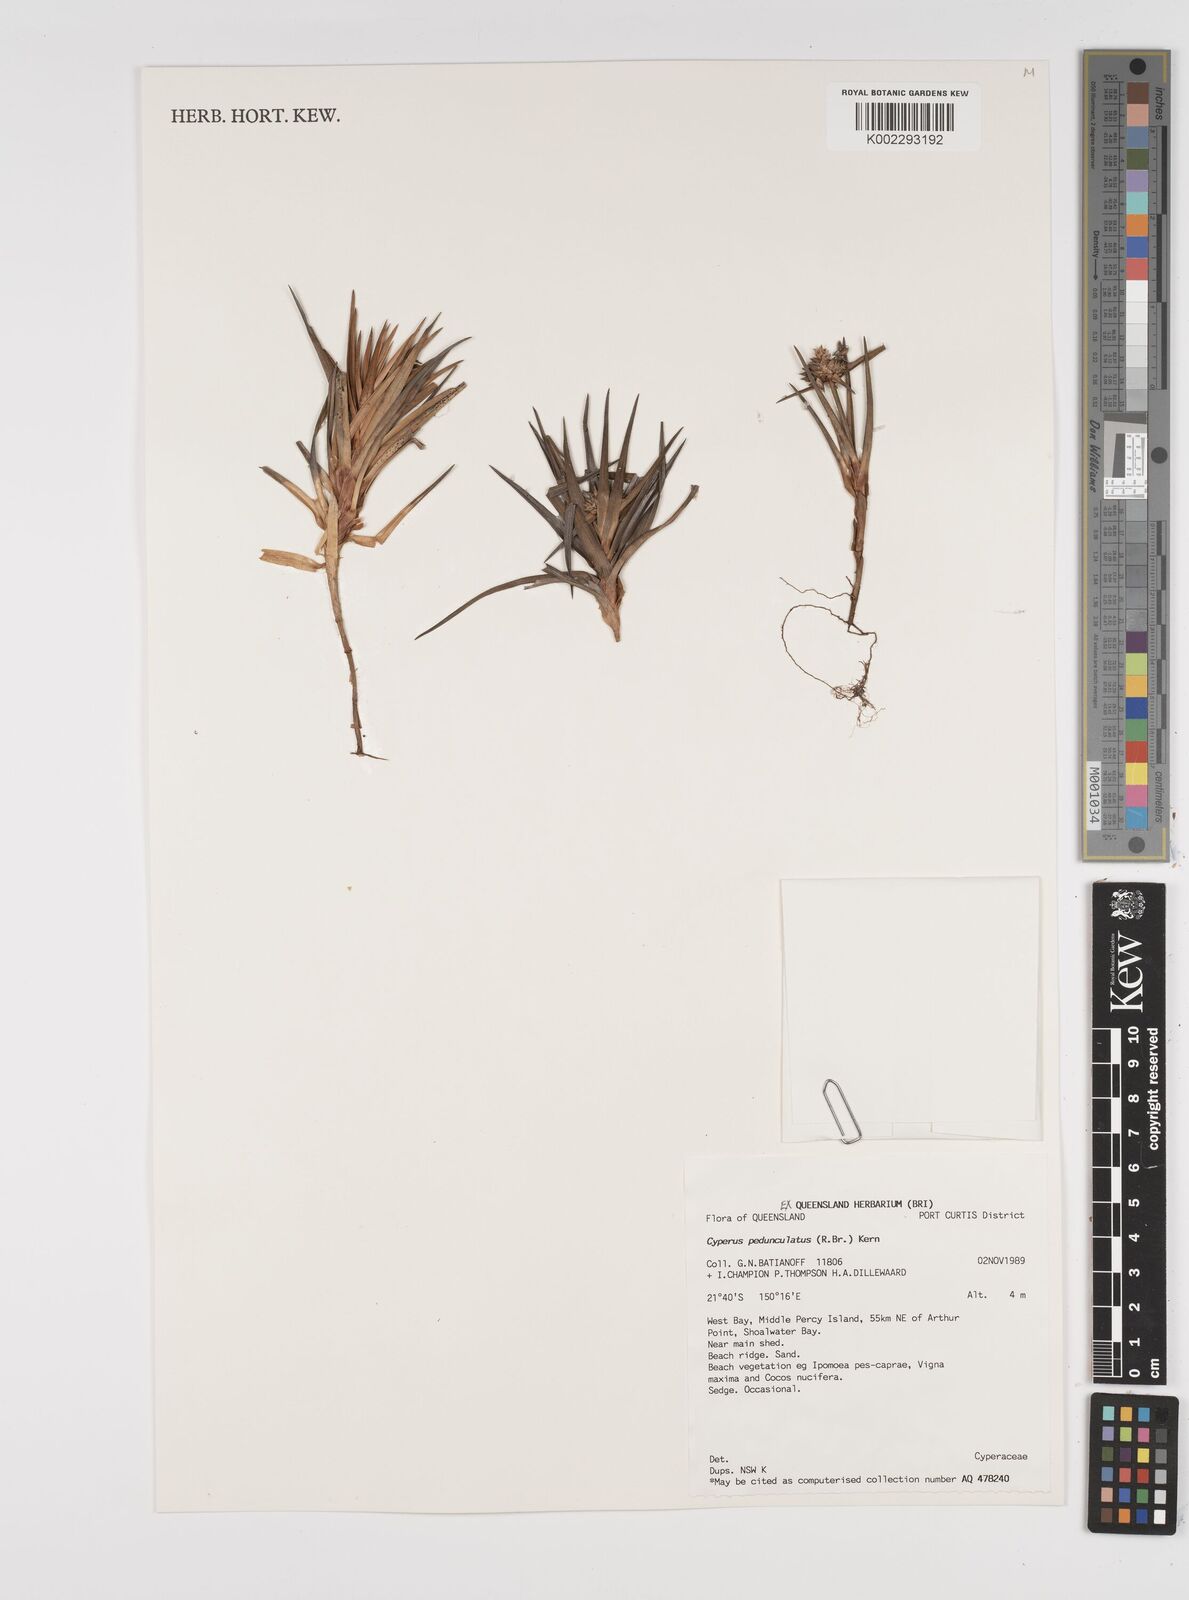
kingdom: Plantae
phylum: Tracheophyta
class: Liliopsida
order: Poales
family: Cyperaceae
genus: Cyperus
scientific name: Cyperus pedunculosus
